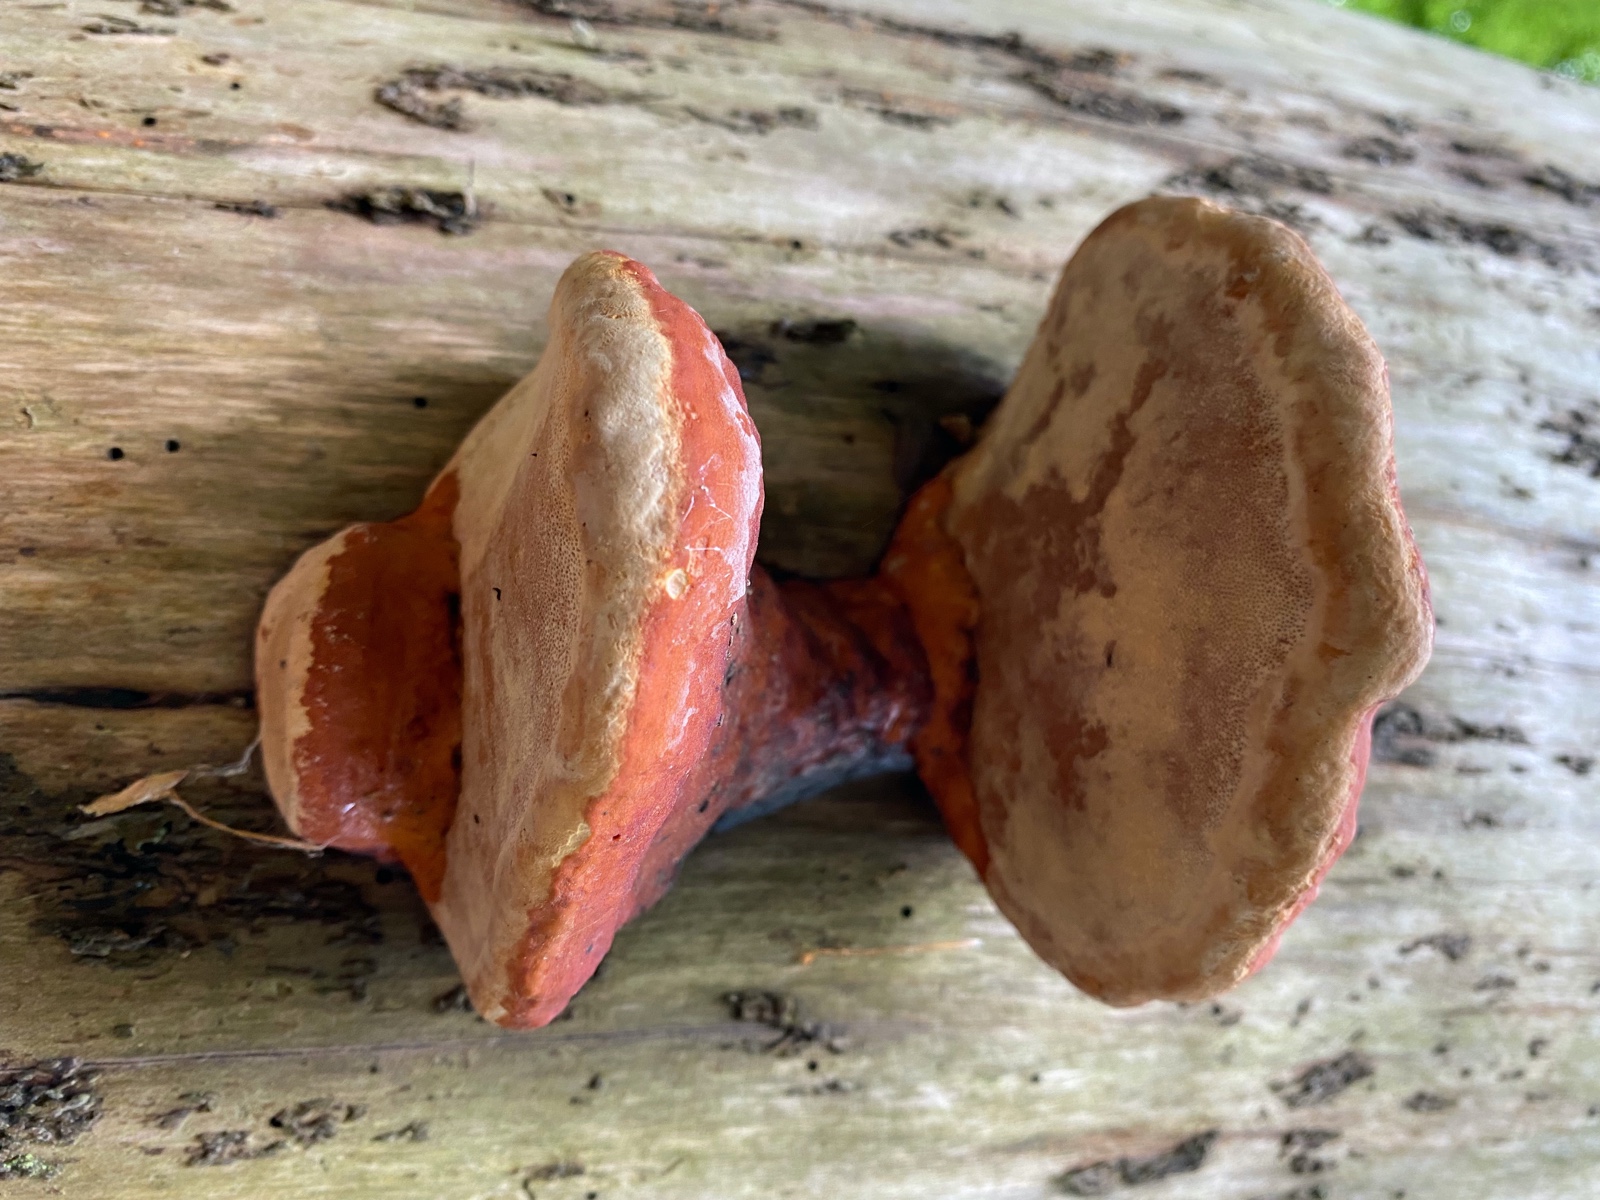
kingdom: Fungi
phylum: Basidiomycota
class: Agaricomycetes
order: Polyporales
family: Fomitopsidaceae
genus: Fomitopsis
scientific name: Fomitopsis pinicola
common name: randbæltet hovporesvamp
